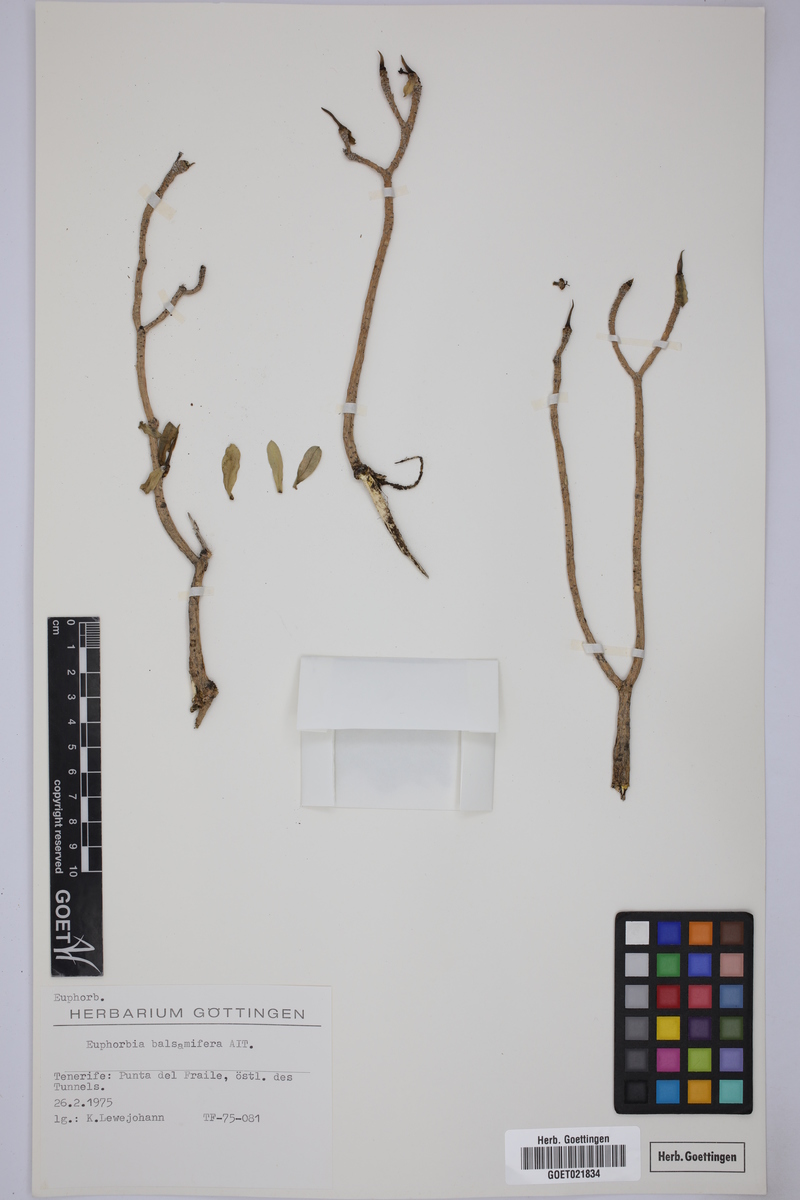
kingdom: Plantae
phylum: Tracheophyta
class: Magnoliopsida
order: Malpighiales
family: Euphorbiaceae
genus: Euphorbia
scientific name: Euphorbia balsamifera
